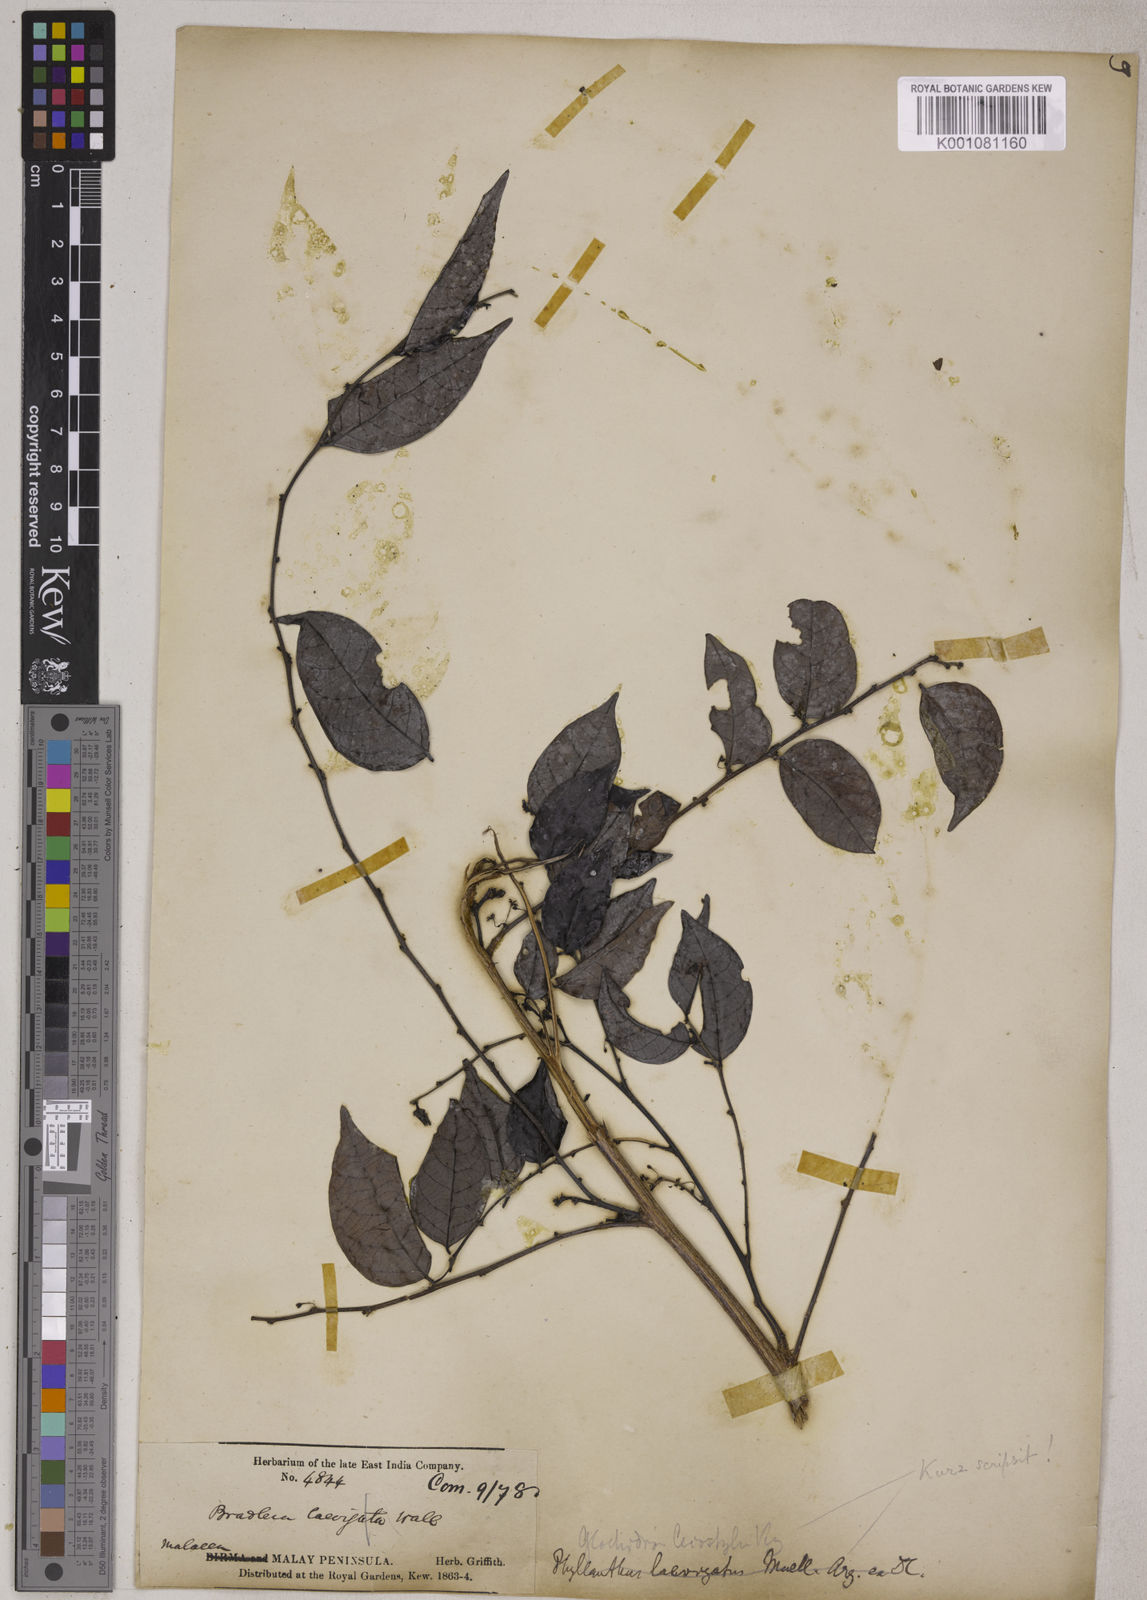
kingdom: Plantae
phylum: Tracheophyta
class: Magnoliopsida
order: Malpighiales
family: Phyllanthaceae
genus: Glochidion
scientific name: Glochidion rubrum
